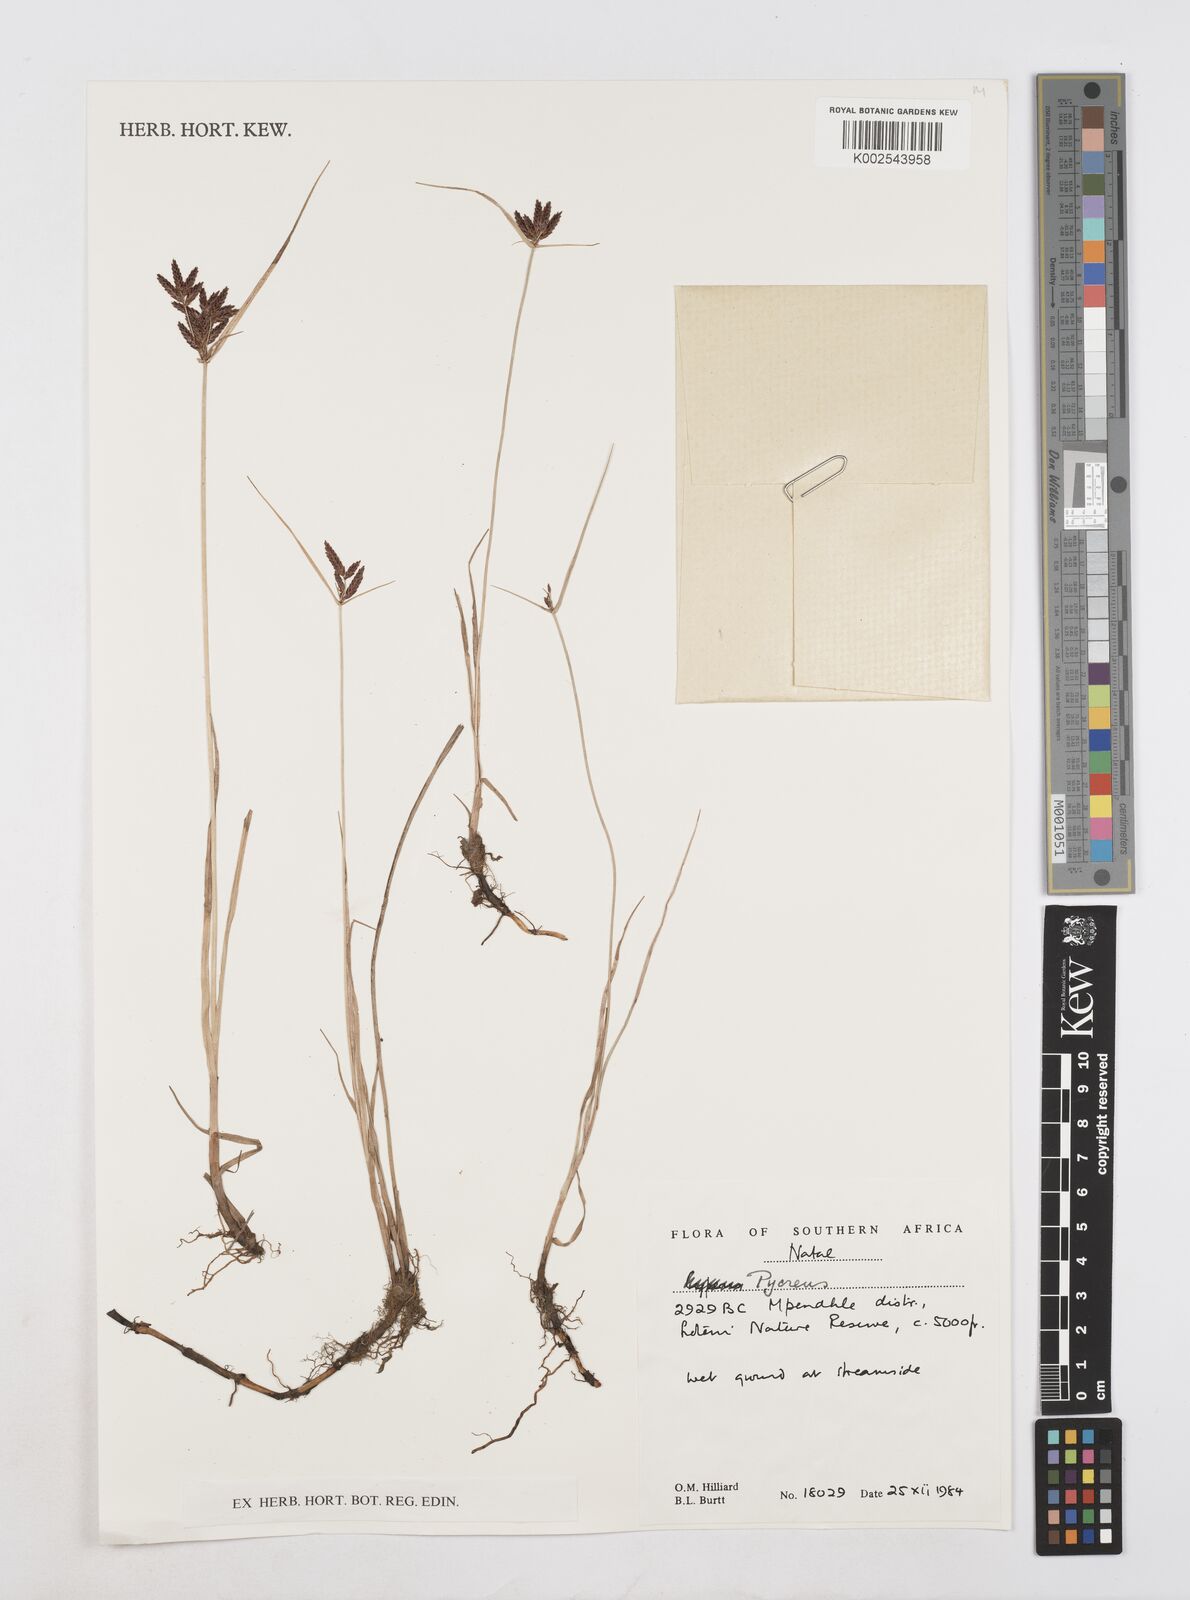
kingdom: Plantae
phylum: Tracheophyta
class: Liliopsida
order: Poales
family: Cyperaceae
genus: Cyperus
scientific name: Cyperus
